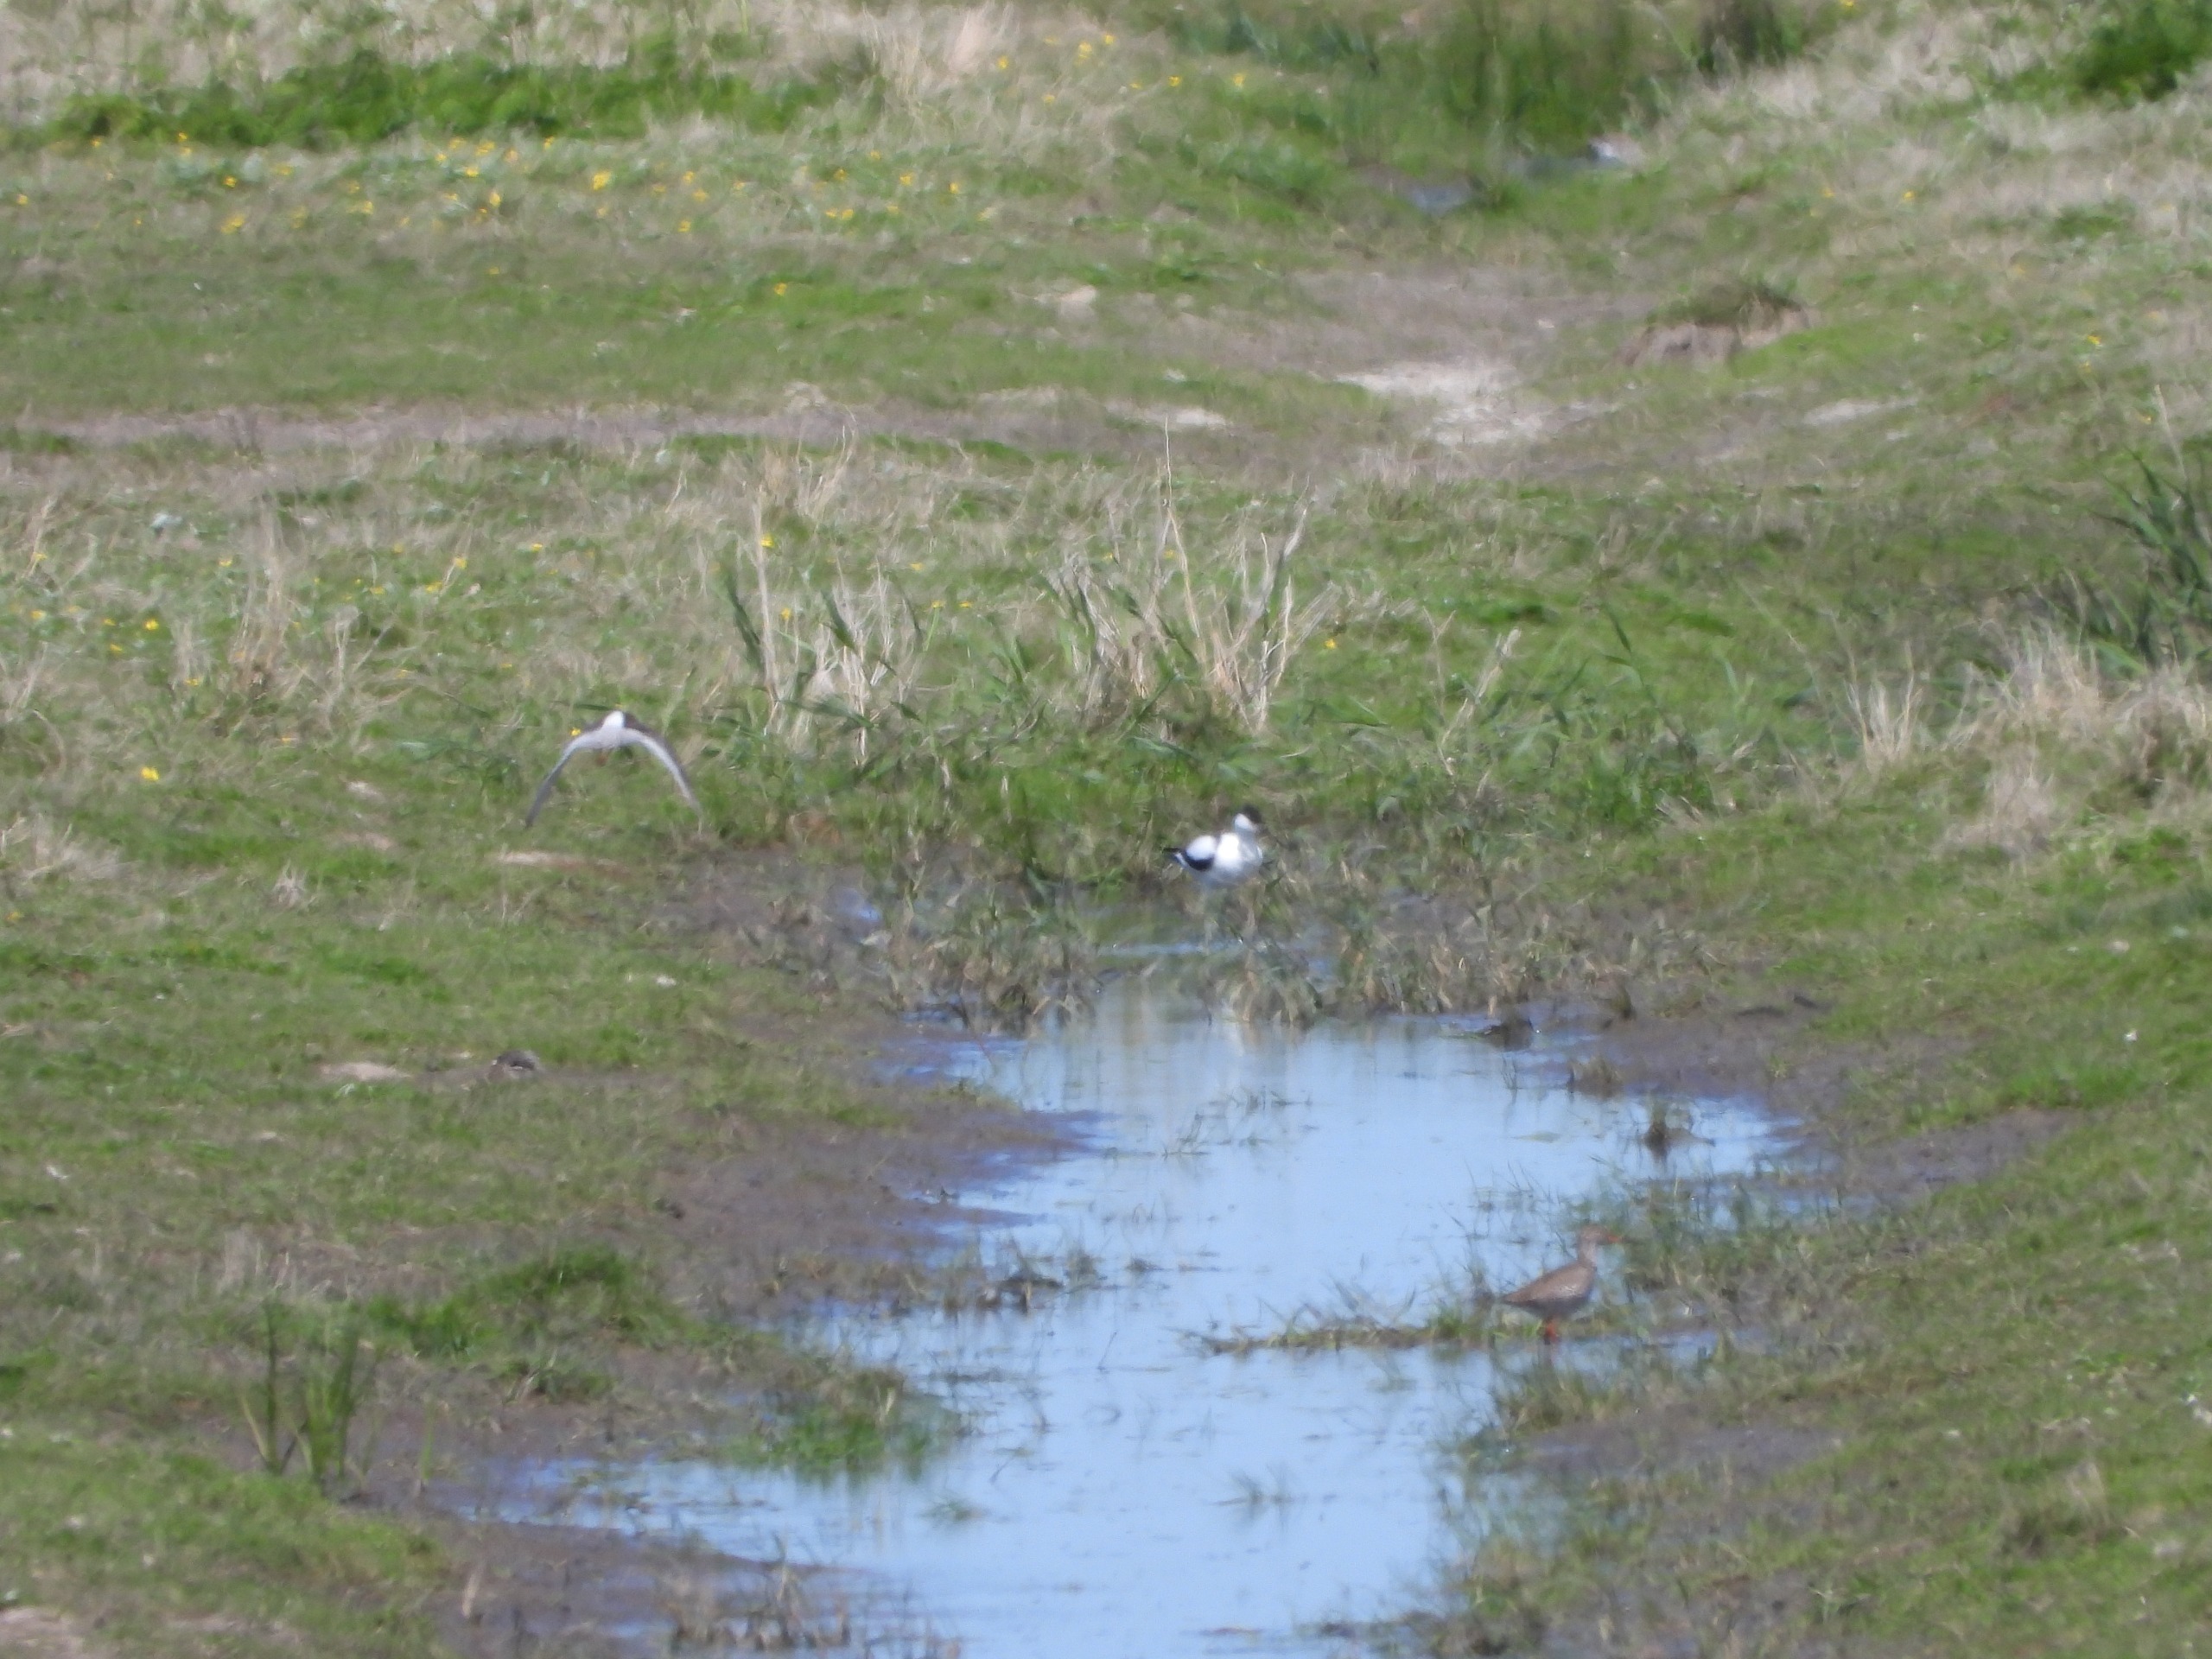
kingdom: Animalia
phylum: Chordata
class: Aves
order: Charadriiformes
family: Recurvirostridae
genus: Recurvirostra
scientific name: Recurvirostra avosetta
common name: Klyde
